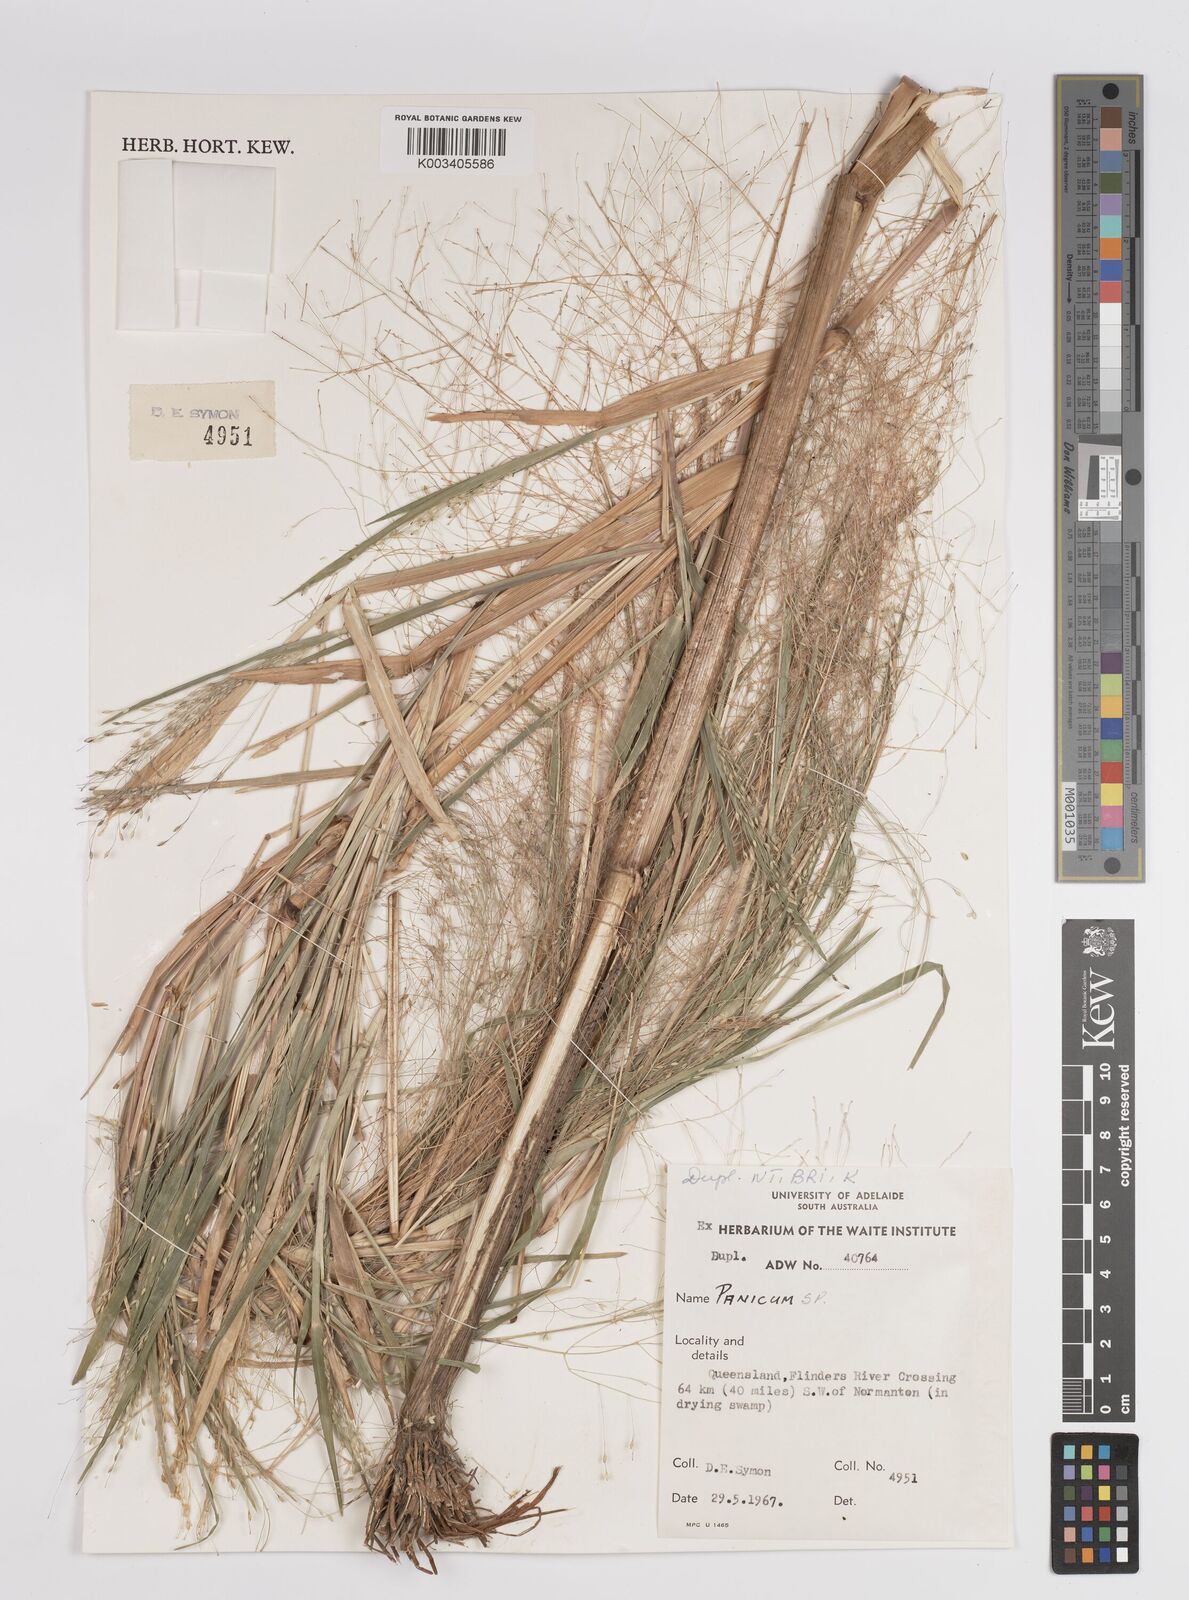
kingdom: Plantae
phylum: Tracheophyta
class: Liliopsida
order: Poales
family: Poaceae
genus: Panicum
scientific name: Panicum
